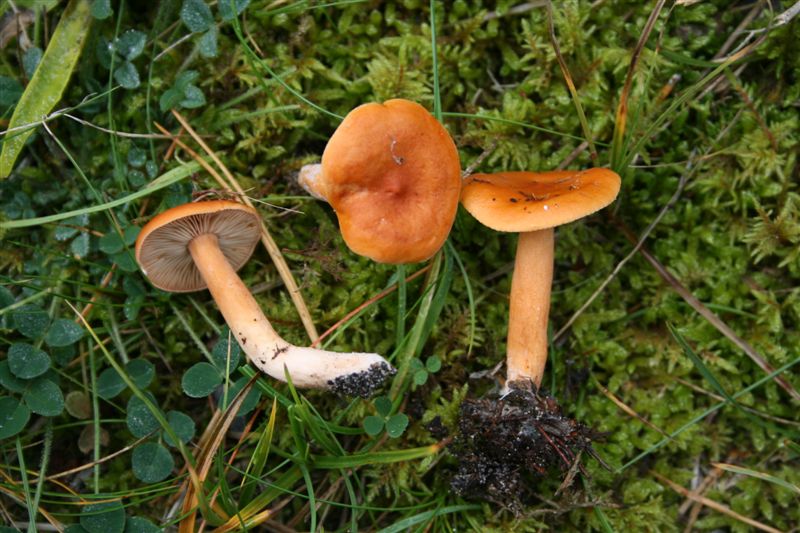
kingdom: Fungi
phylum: Basidiomycota
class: Agaricomycetes
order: Russulales
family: Russulaceae
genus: Lactarius
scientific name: Lactarius aurantiacus
